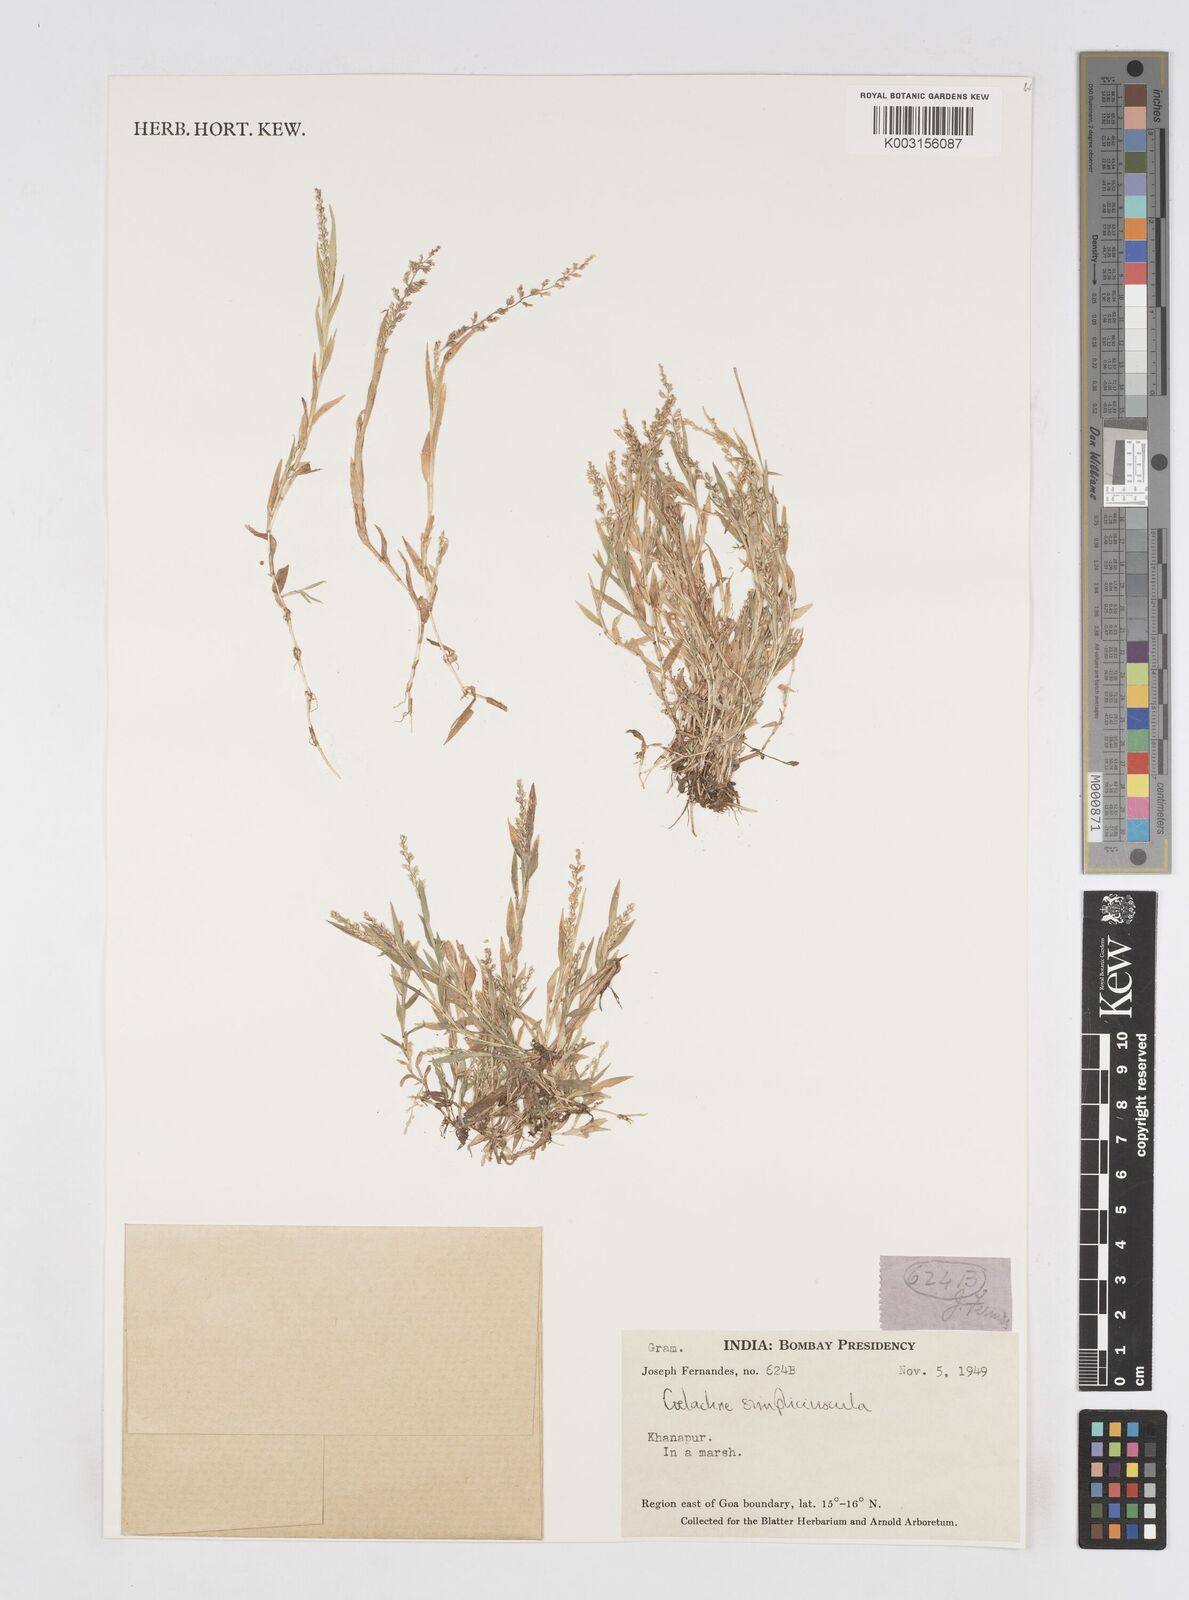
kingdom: Plantae
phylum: Tracheophyta
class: Liliopsida
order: Poales
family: Poaceae
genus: Coelachne
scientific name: Coelachne simpliciuscula
